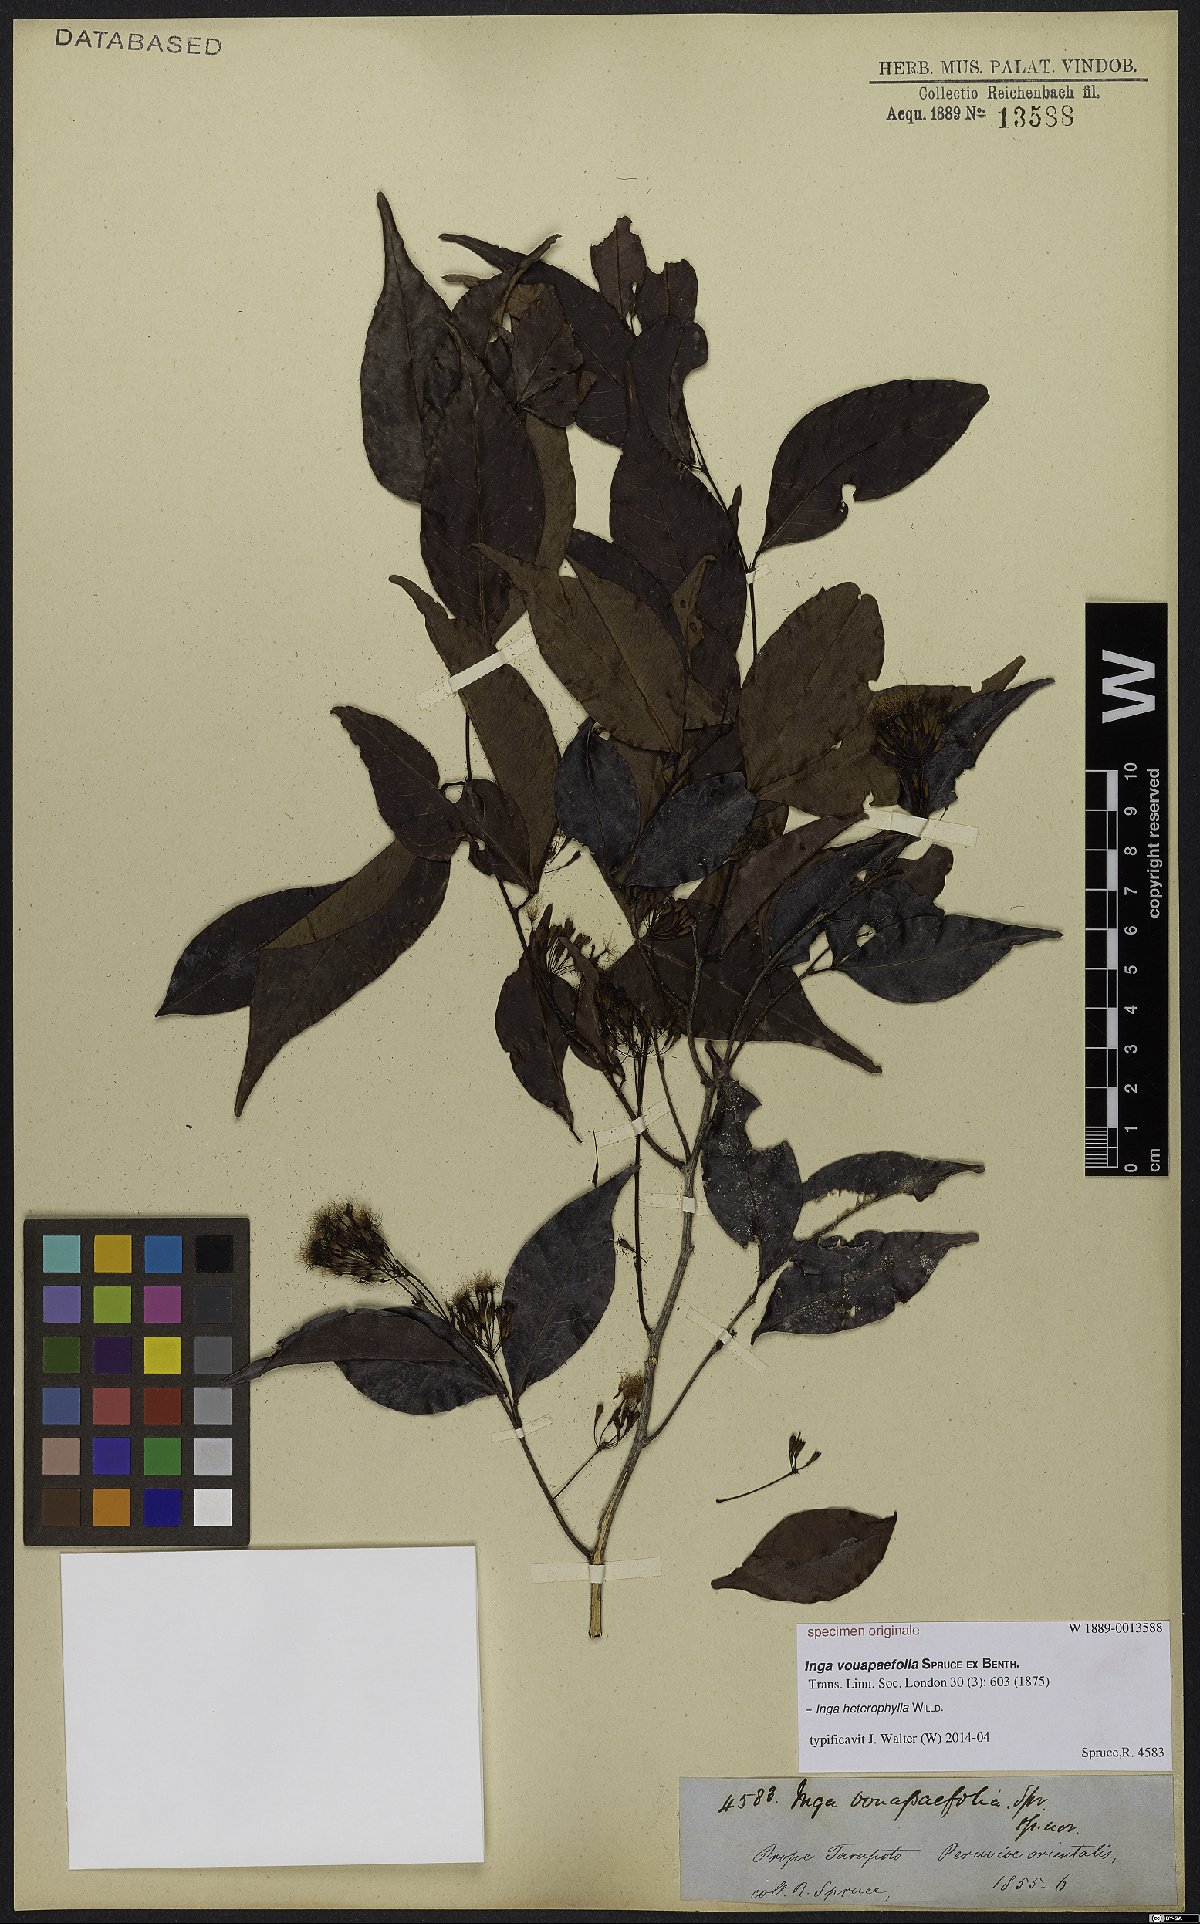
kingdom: Plantae
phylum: Tracheophyta
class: Magnoliopsida
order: Fabales
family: Fabaceae
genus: Inga
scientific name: Inga heterophylla
